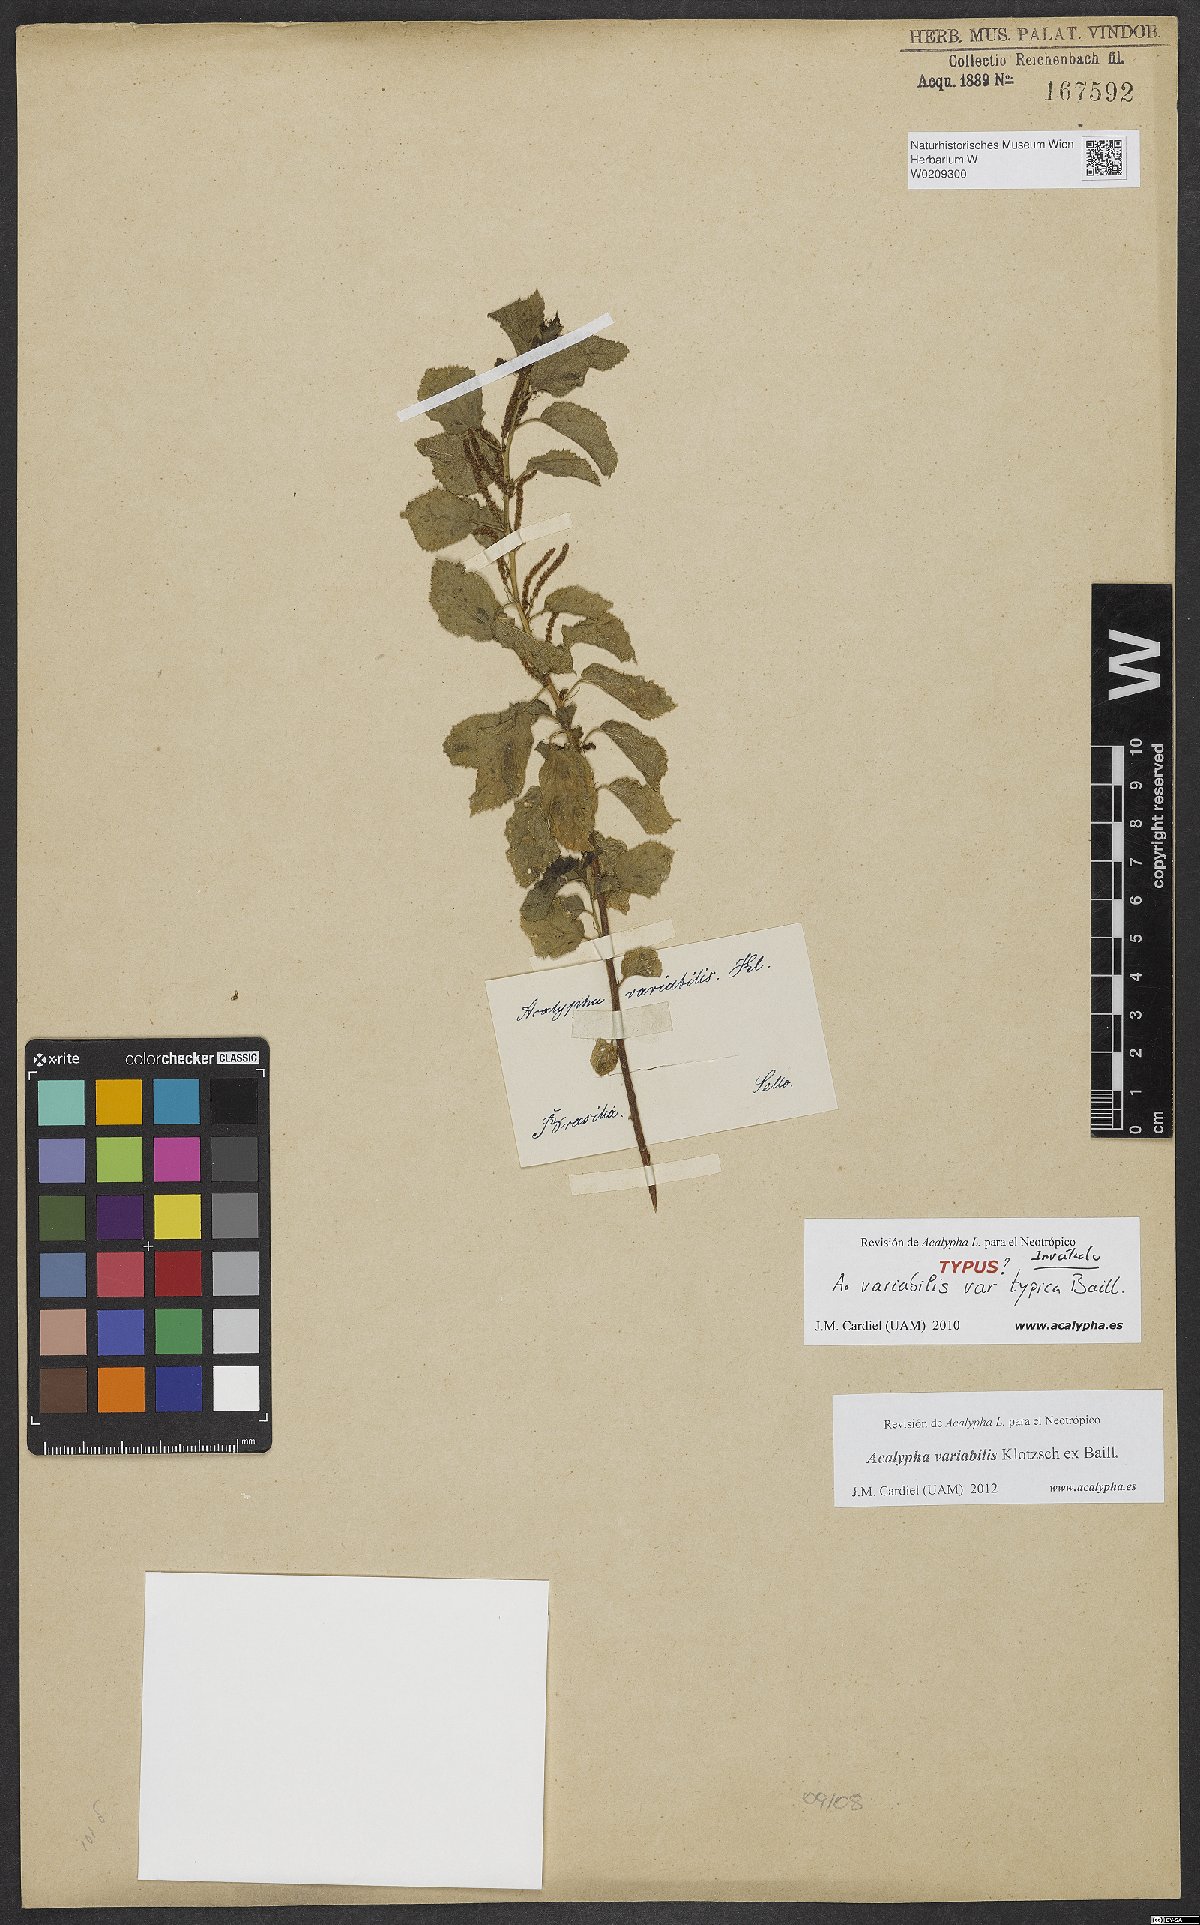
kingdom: Plantae
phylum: Tracheophyta
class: Magnoliopsida
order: Malpighiales
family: Euphorbiaceae
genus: Acalypha
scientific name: Acalypha variabilis
